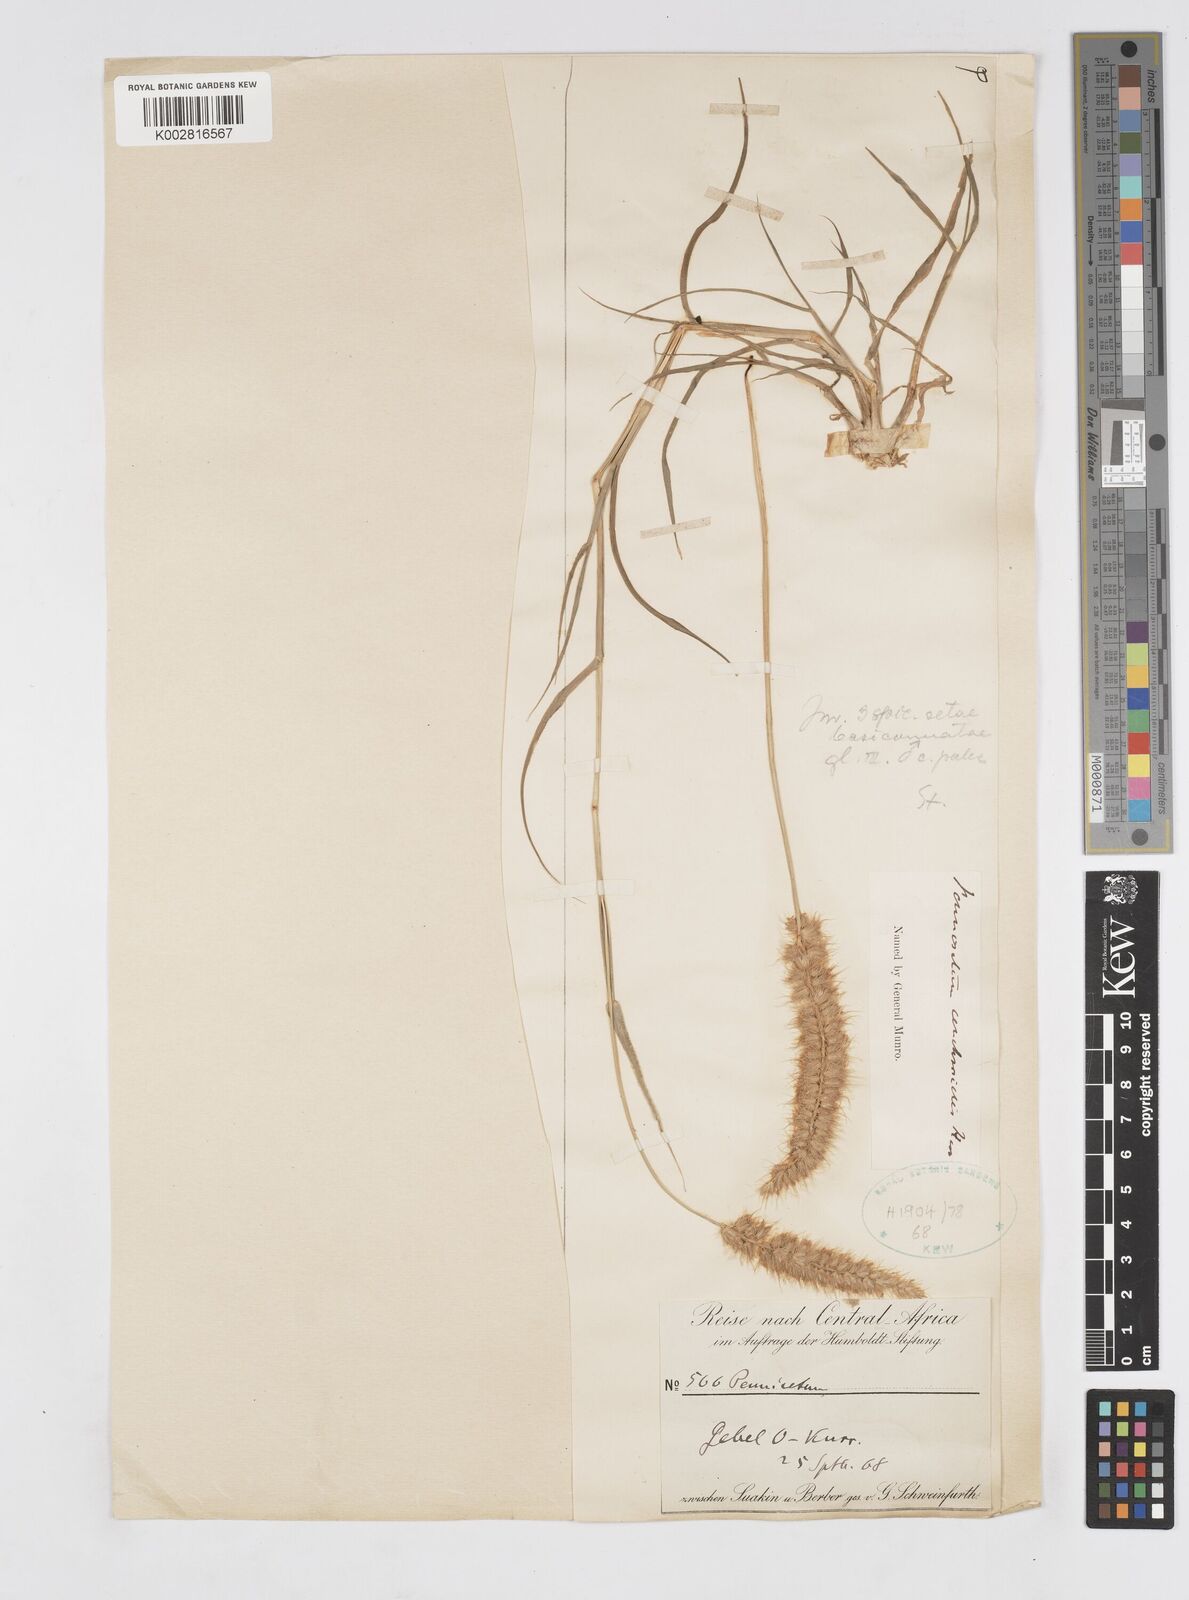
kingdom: Plantae
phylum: Tracheophyta
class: Liliopsida
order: Poales
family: Poaceae
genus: Cenchrus
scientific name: Cenchrus ciliaris
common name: Buffelgrass
